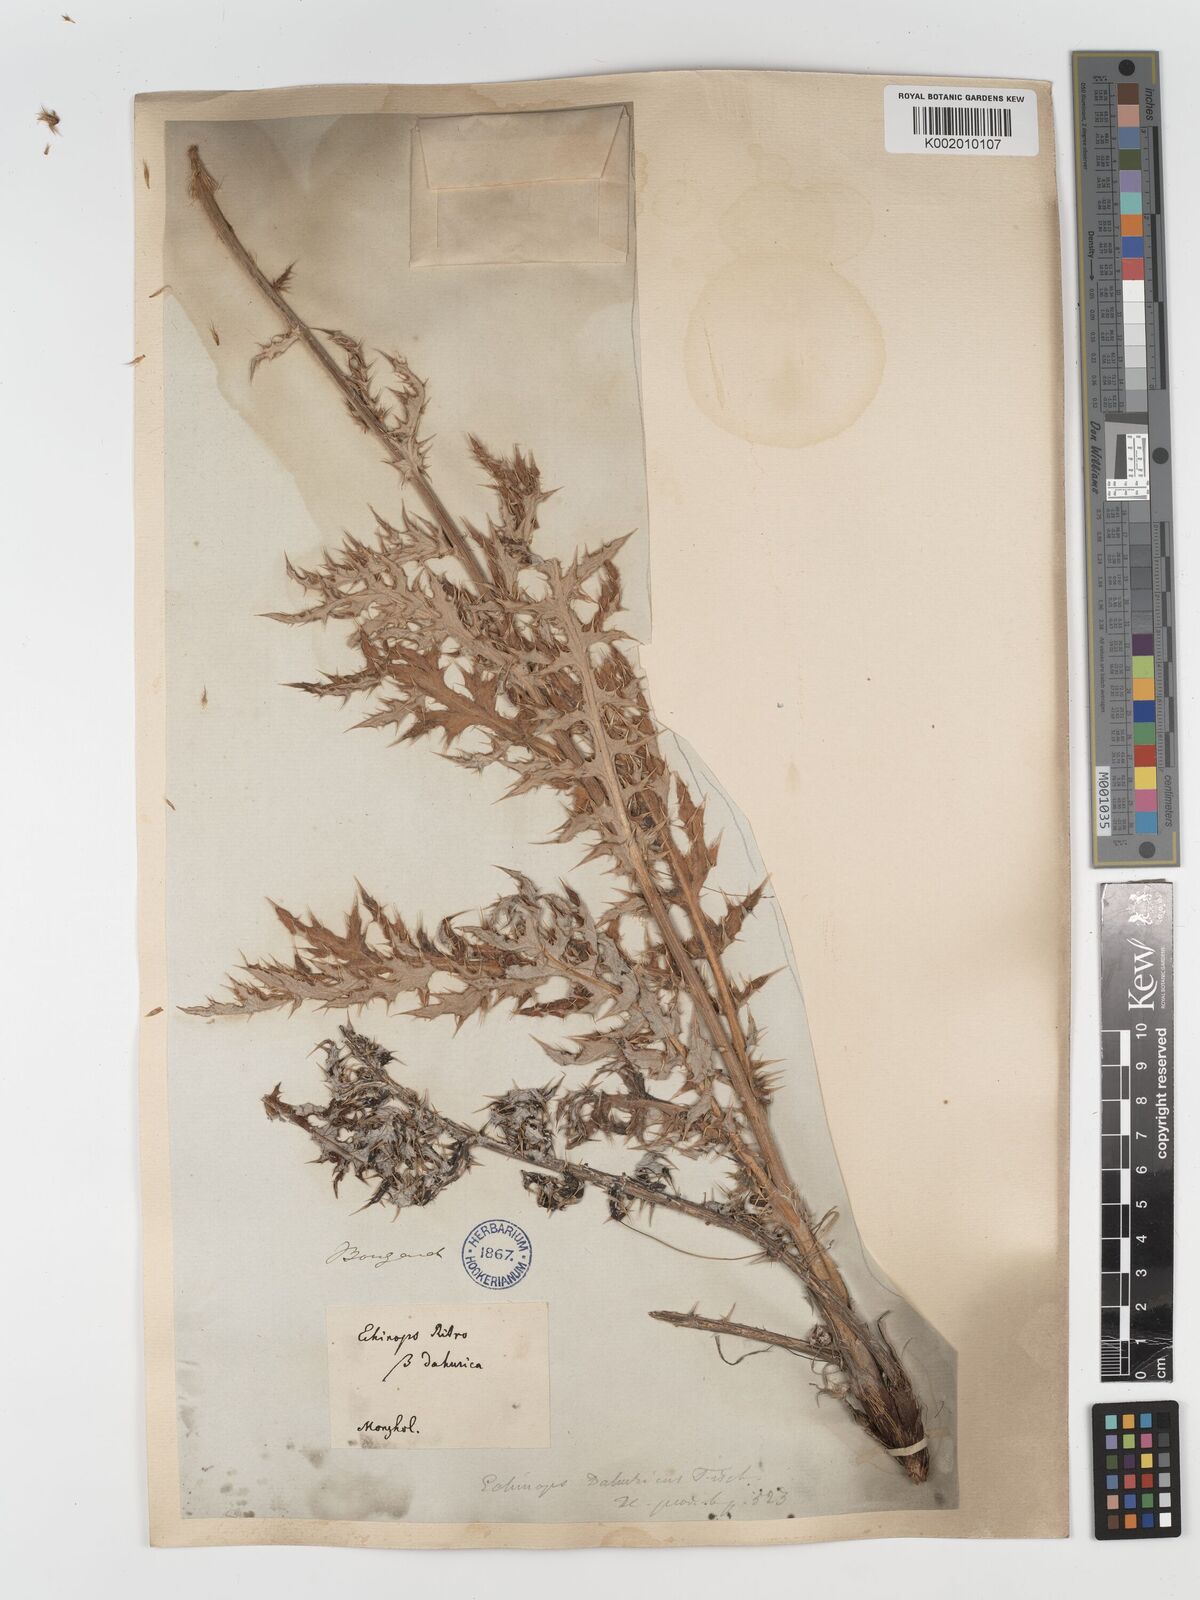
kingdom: Plantae
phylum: Tracheophyta
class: Magnoliopsida
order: Asterales
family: Asteraceae
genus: Echinops
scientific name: Echinops humilis
